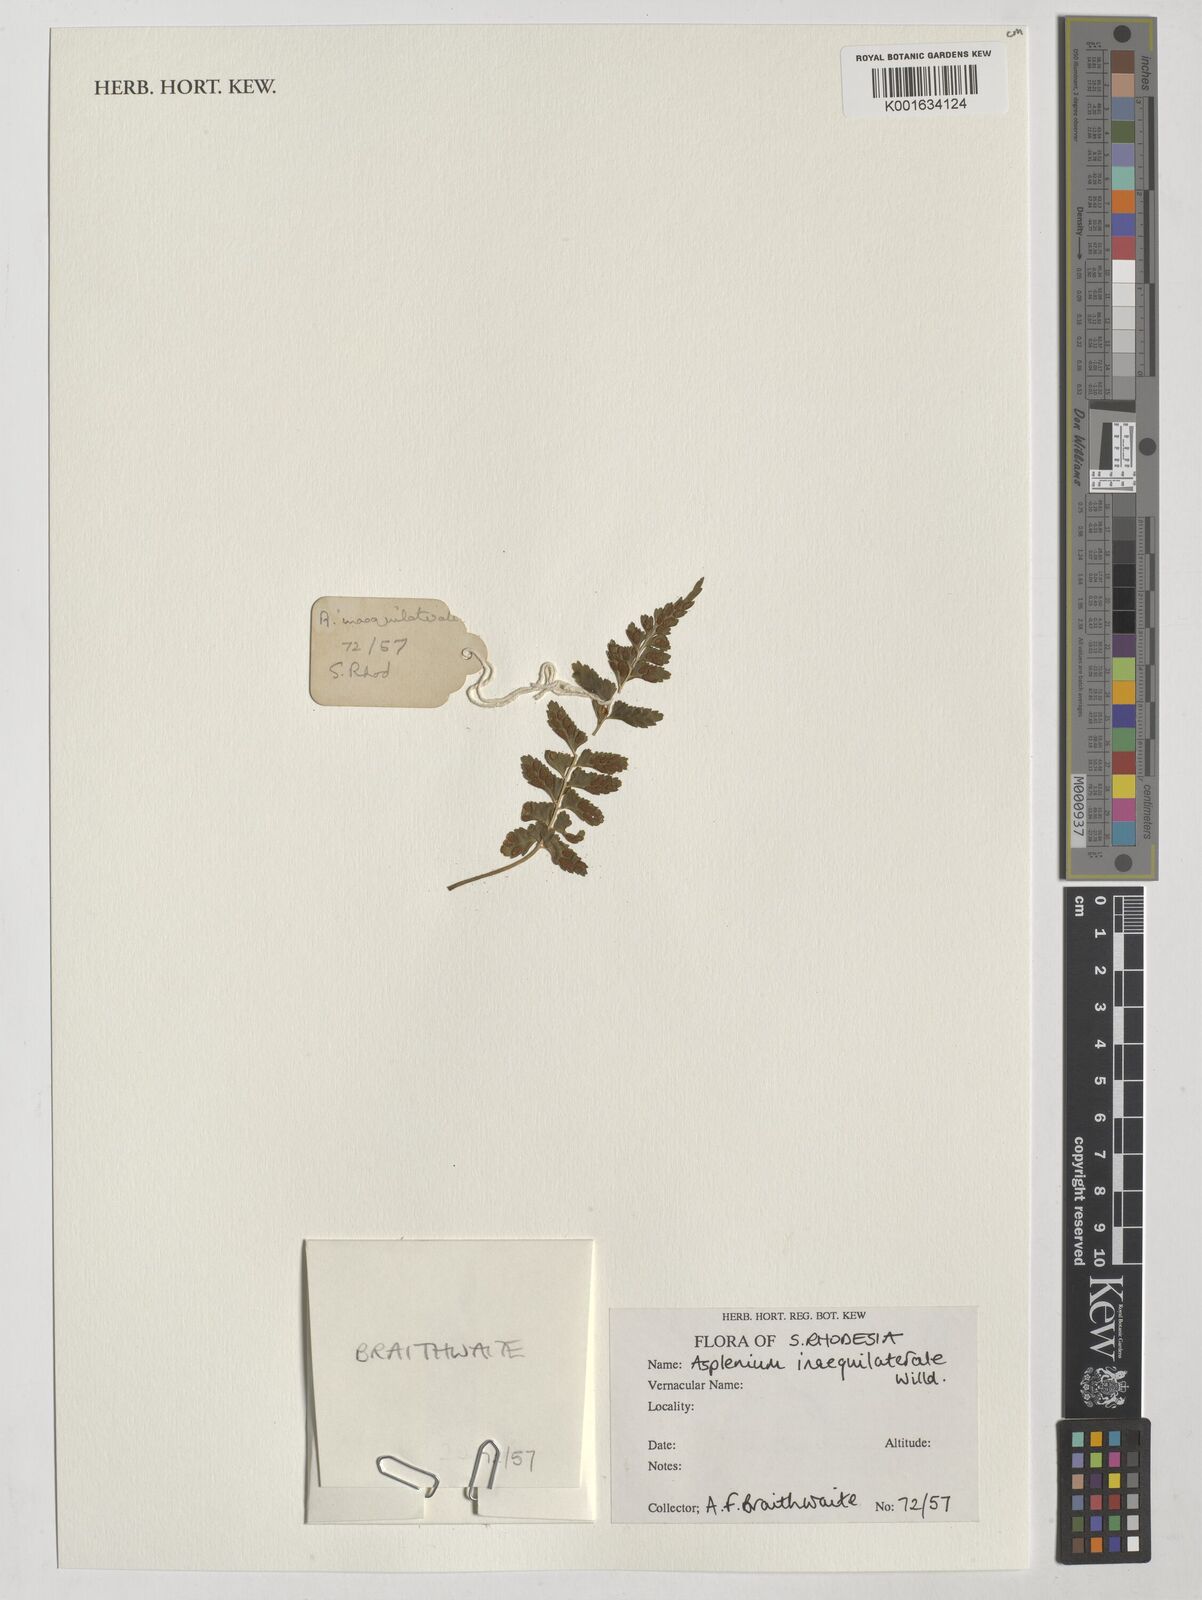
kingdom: Plantae
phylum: Tracheophyta
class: Polypodiopsida
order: Polypodiales
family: Aspleniaceae
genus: Asplenium
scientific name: Asplenium inaequilaterale
